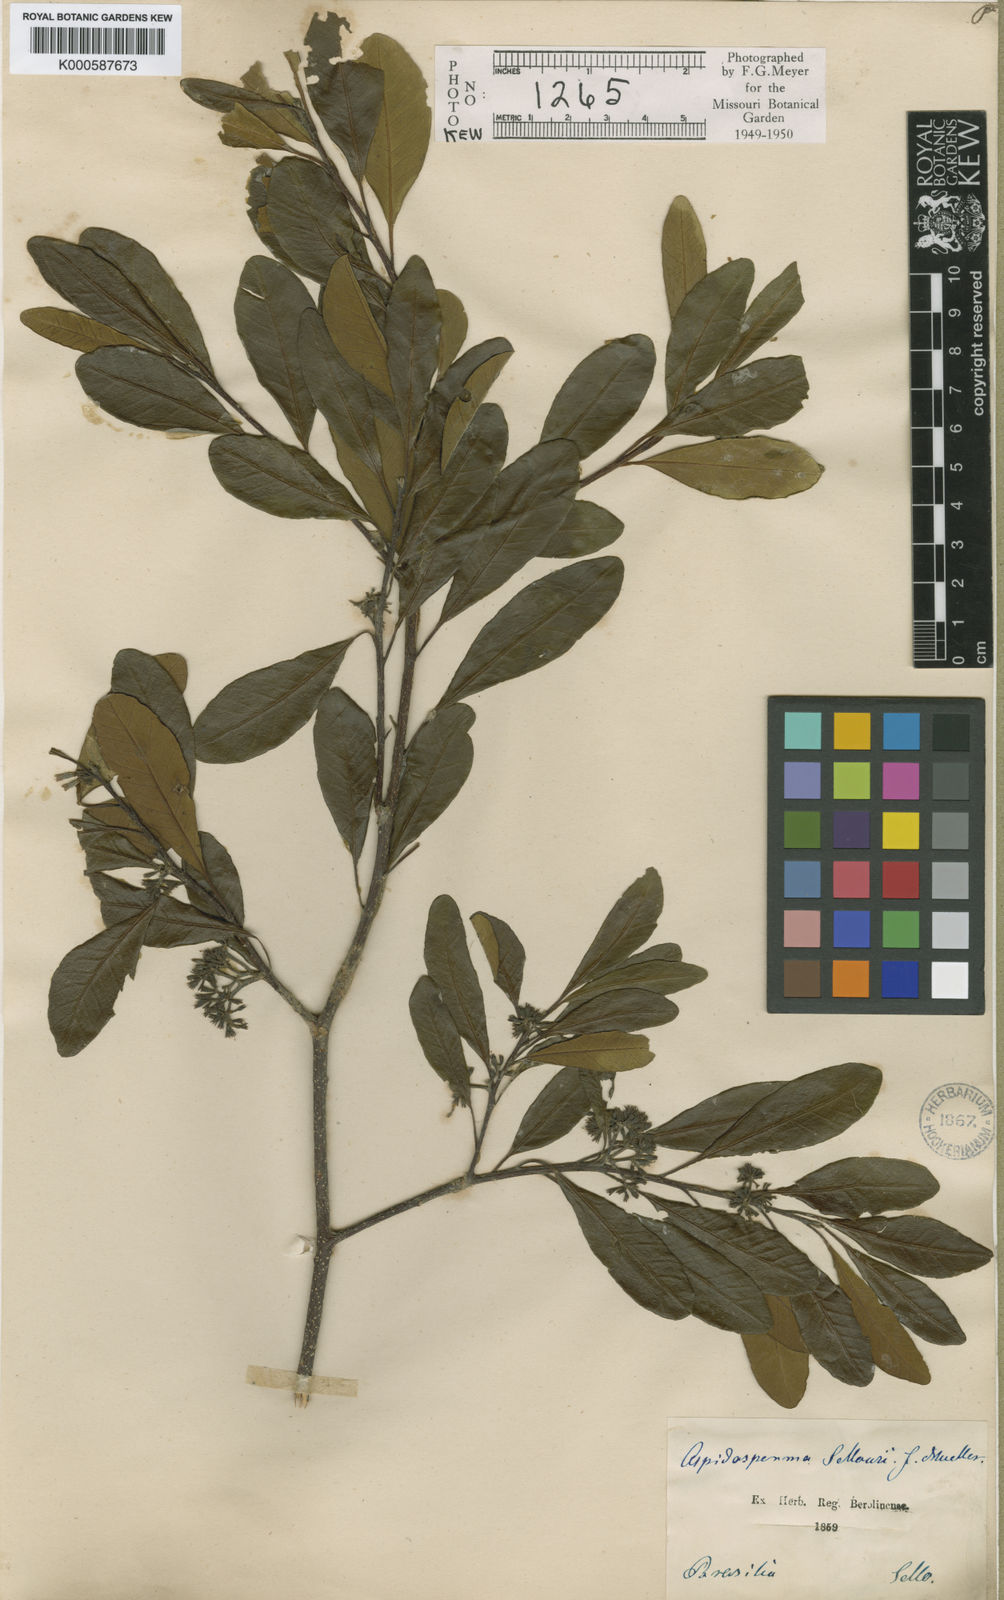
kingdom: Plantae
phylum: Tracheophyta
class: Magnoliopsida
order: Gentianales
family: Apocynaceae
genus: Aspidosperma
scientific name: Aspidosperma
